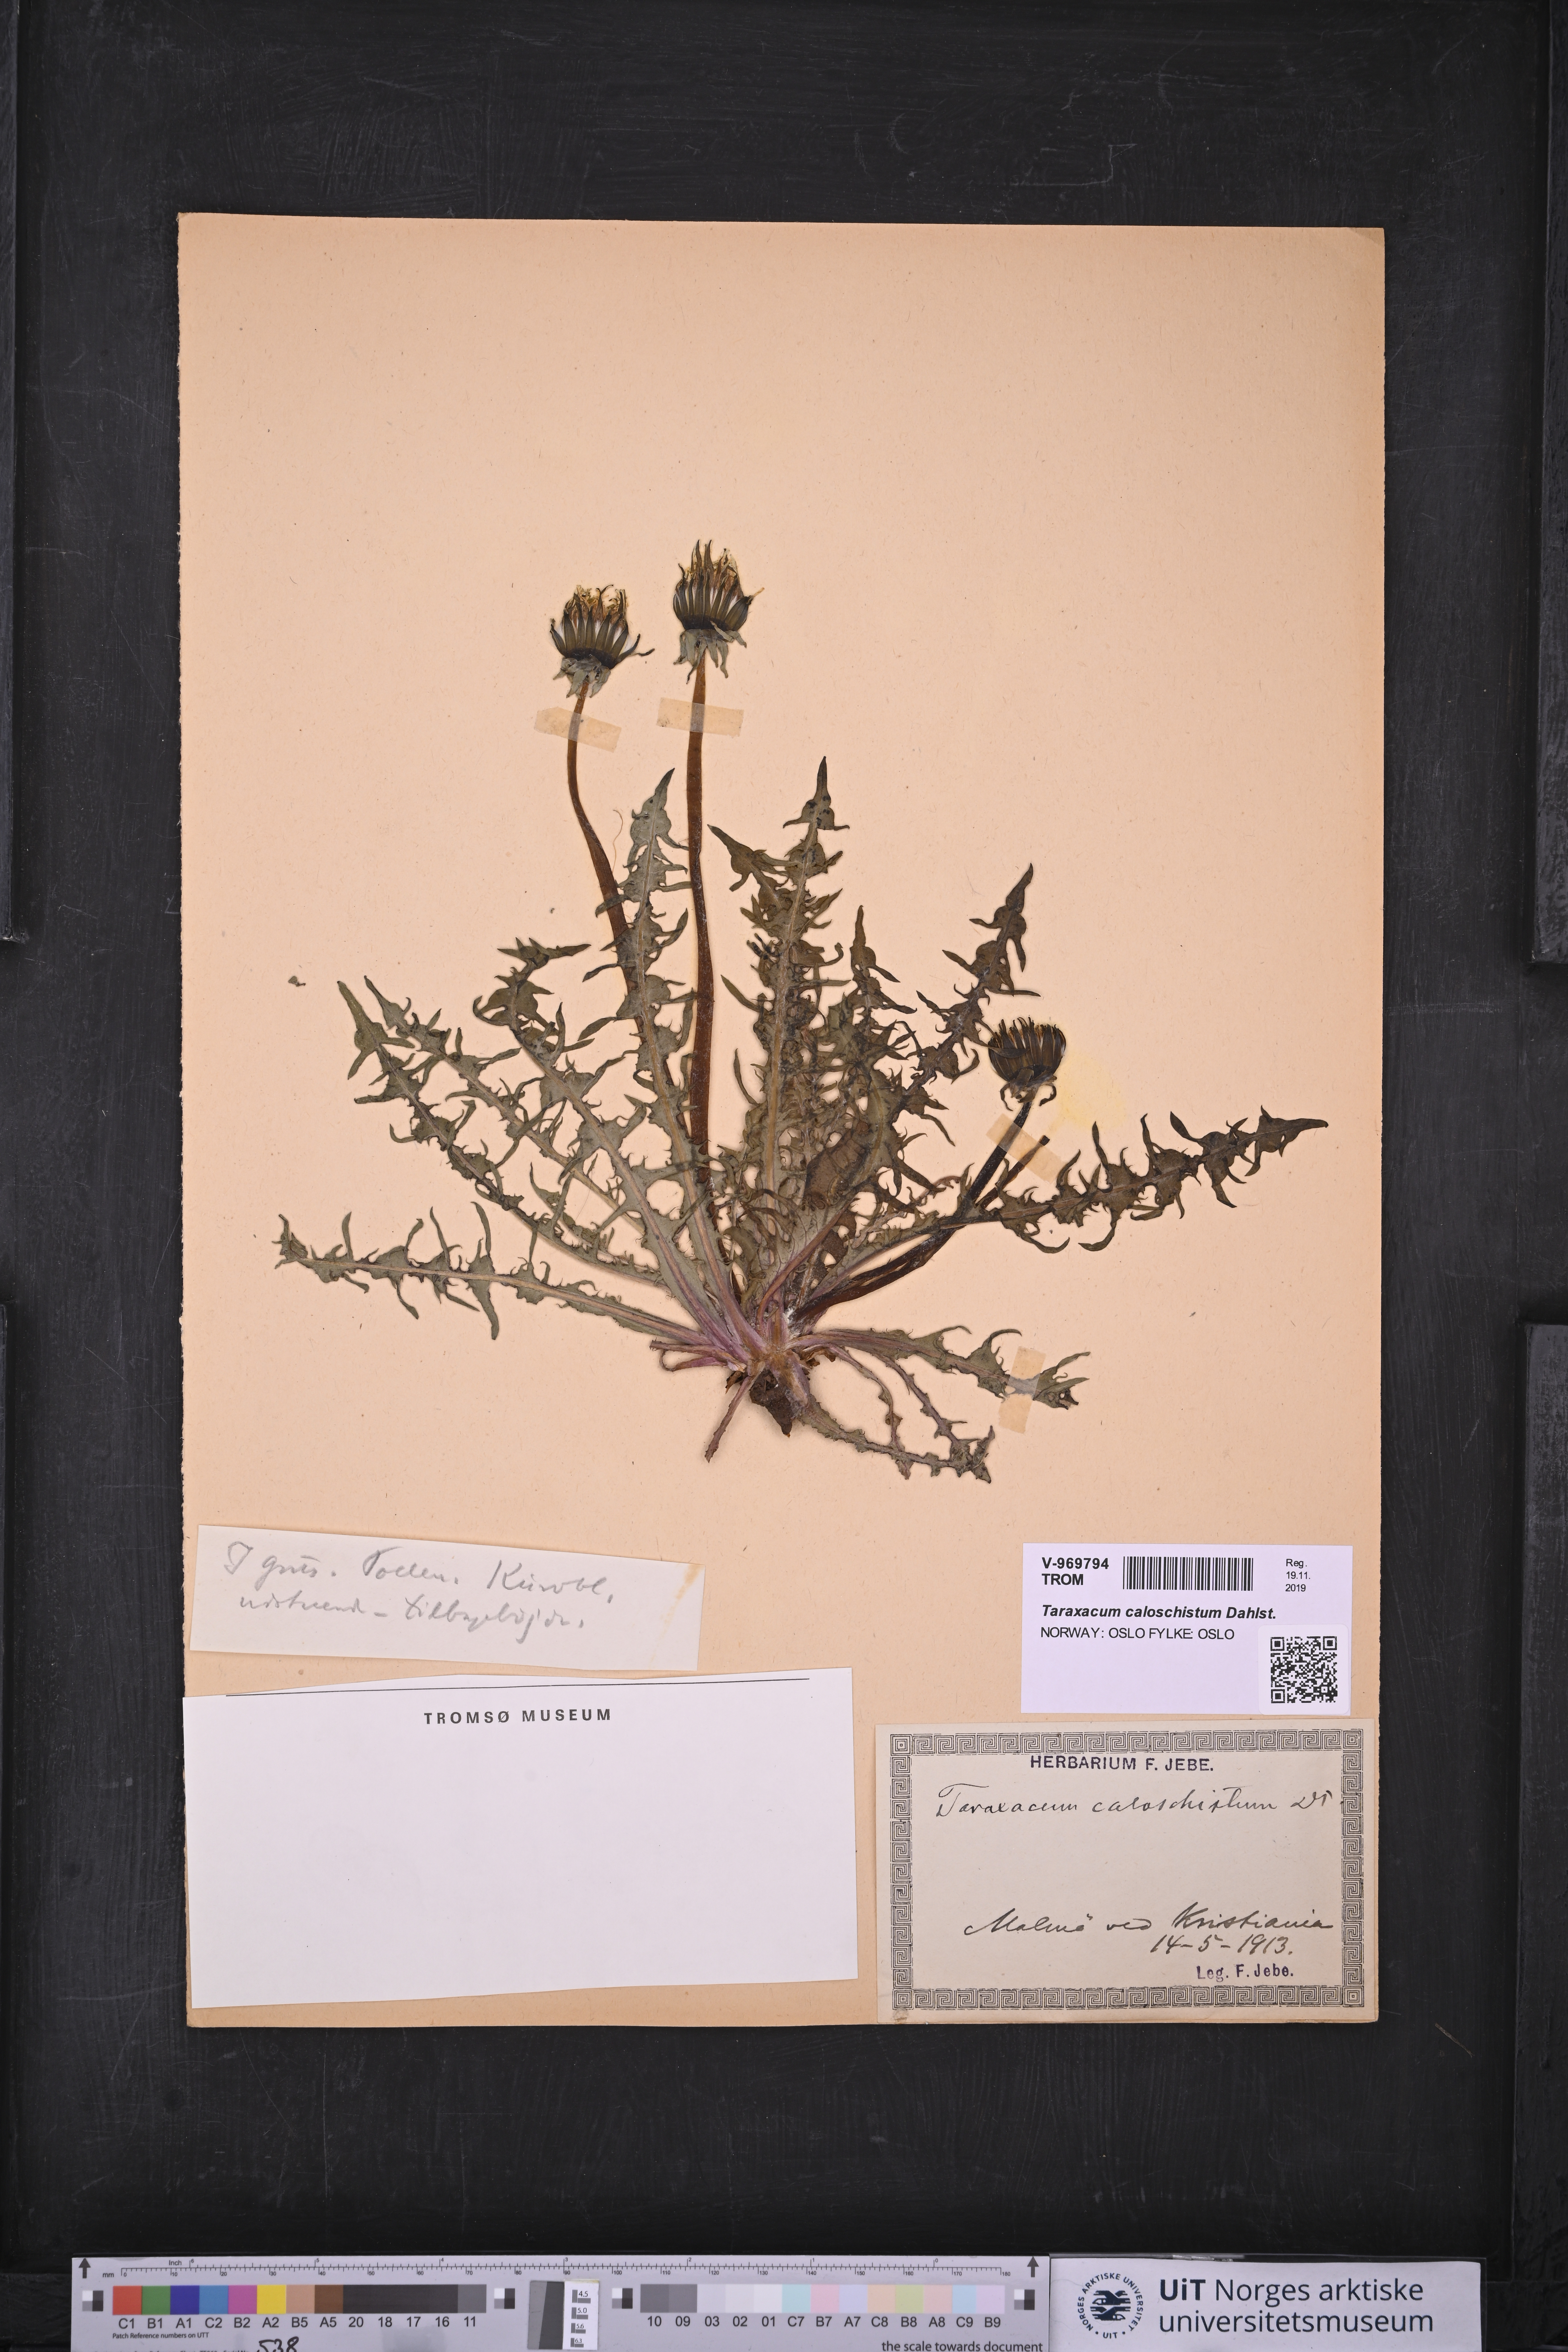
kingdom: Plantae
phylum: Tracheophyta
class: Magnoliopsida
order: Asterales
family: Asteraceae
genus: Taraxacum
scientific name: Taraxacum caloschistum
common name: Brilliant-stalked dandelion
